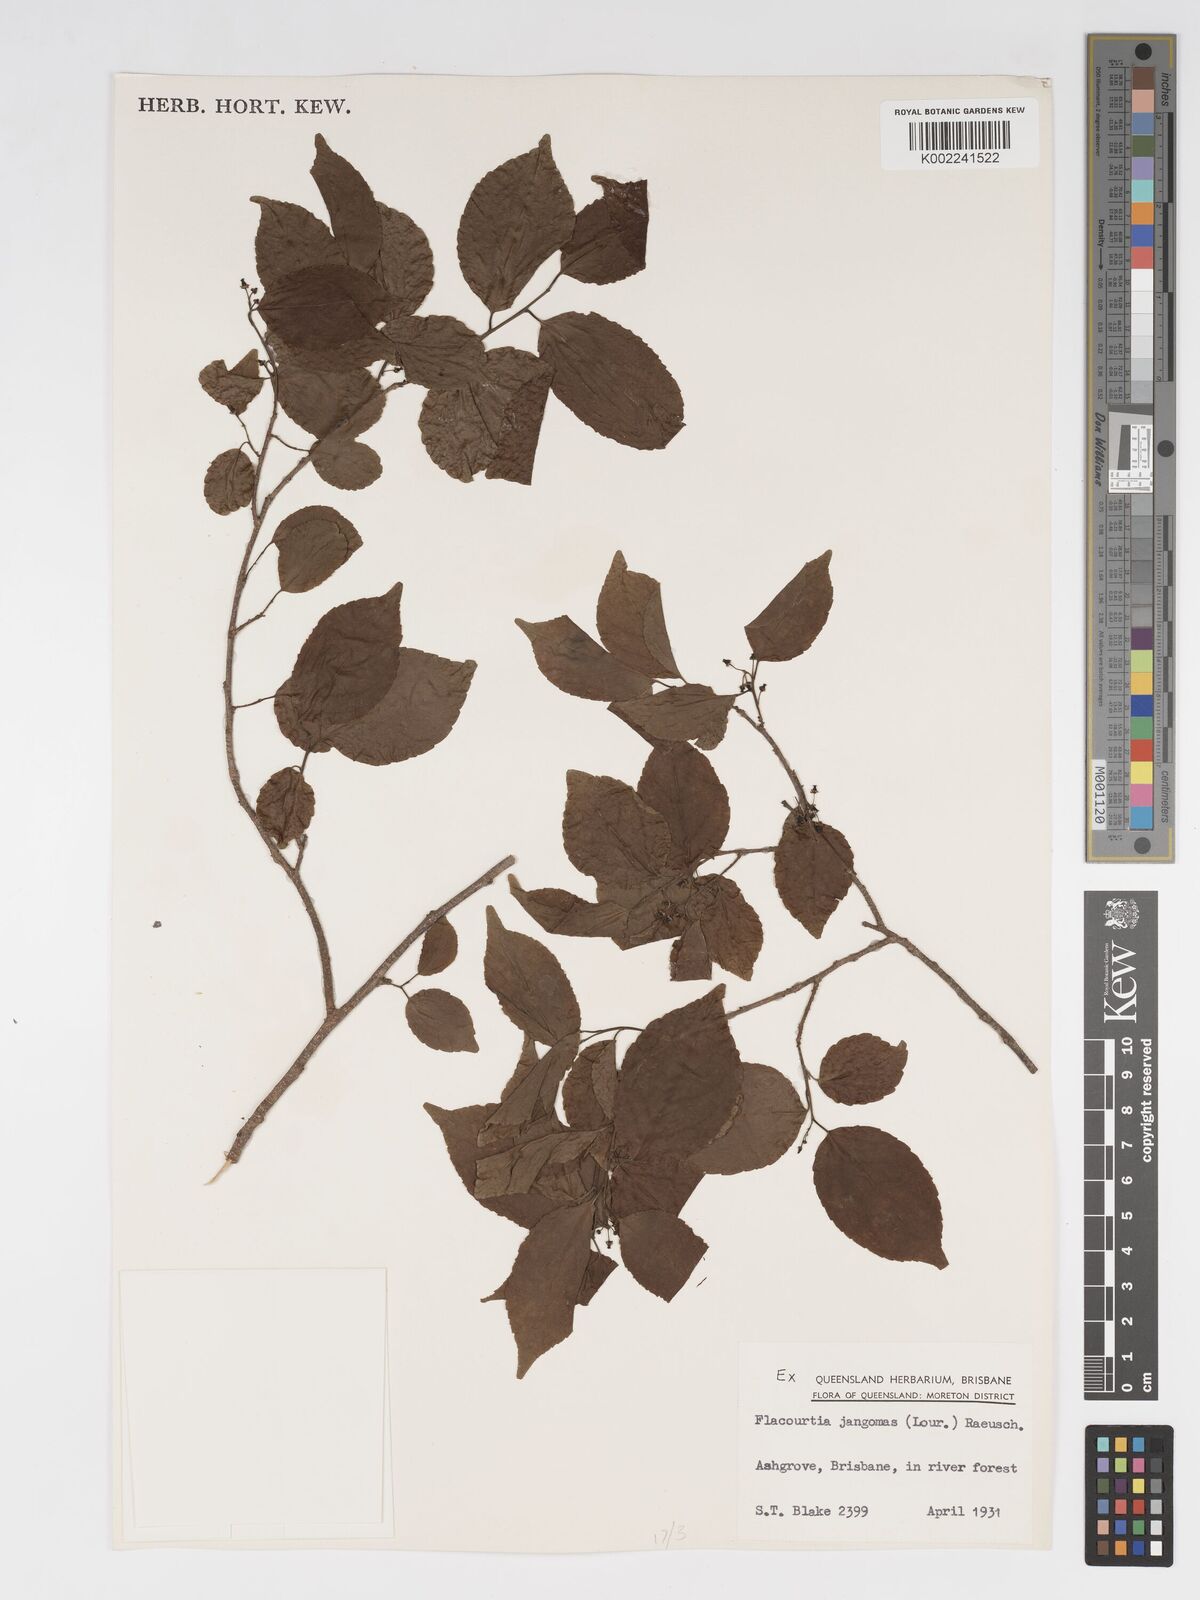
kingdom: Plantae
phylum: Tracheophyta
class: Magnoliopsida
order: Malpighiales
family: Salicaceae
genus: Flacourtia
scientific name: Flacourtia jangomas
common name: Indian-plum
